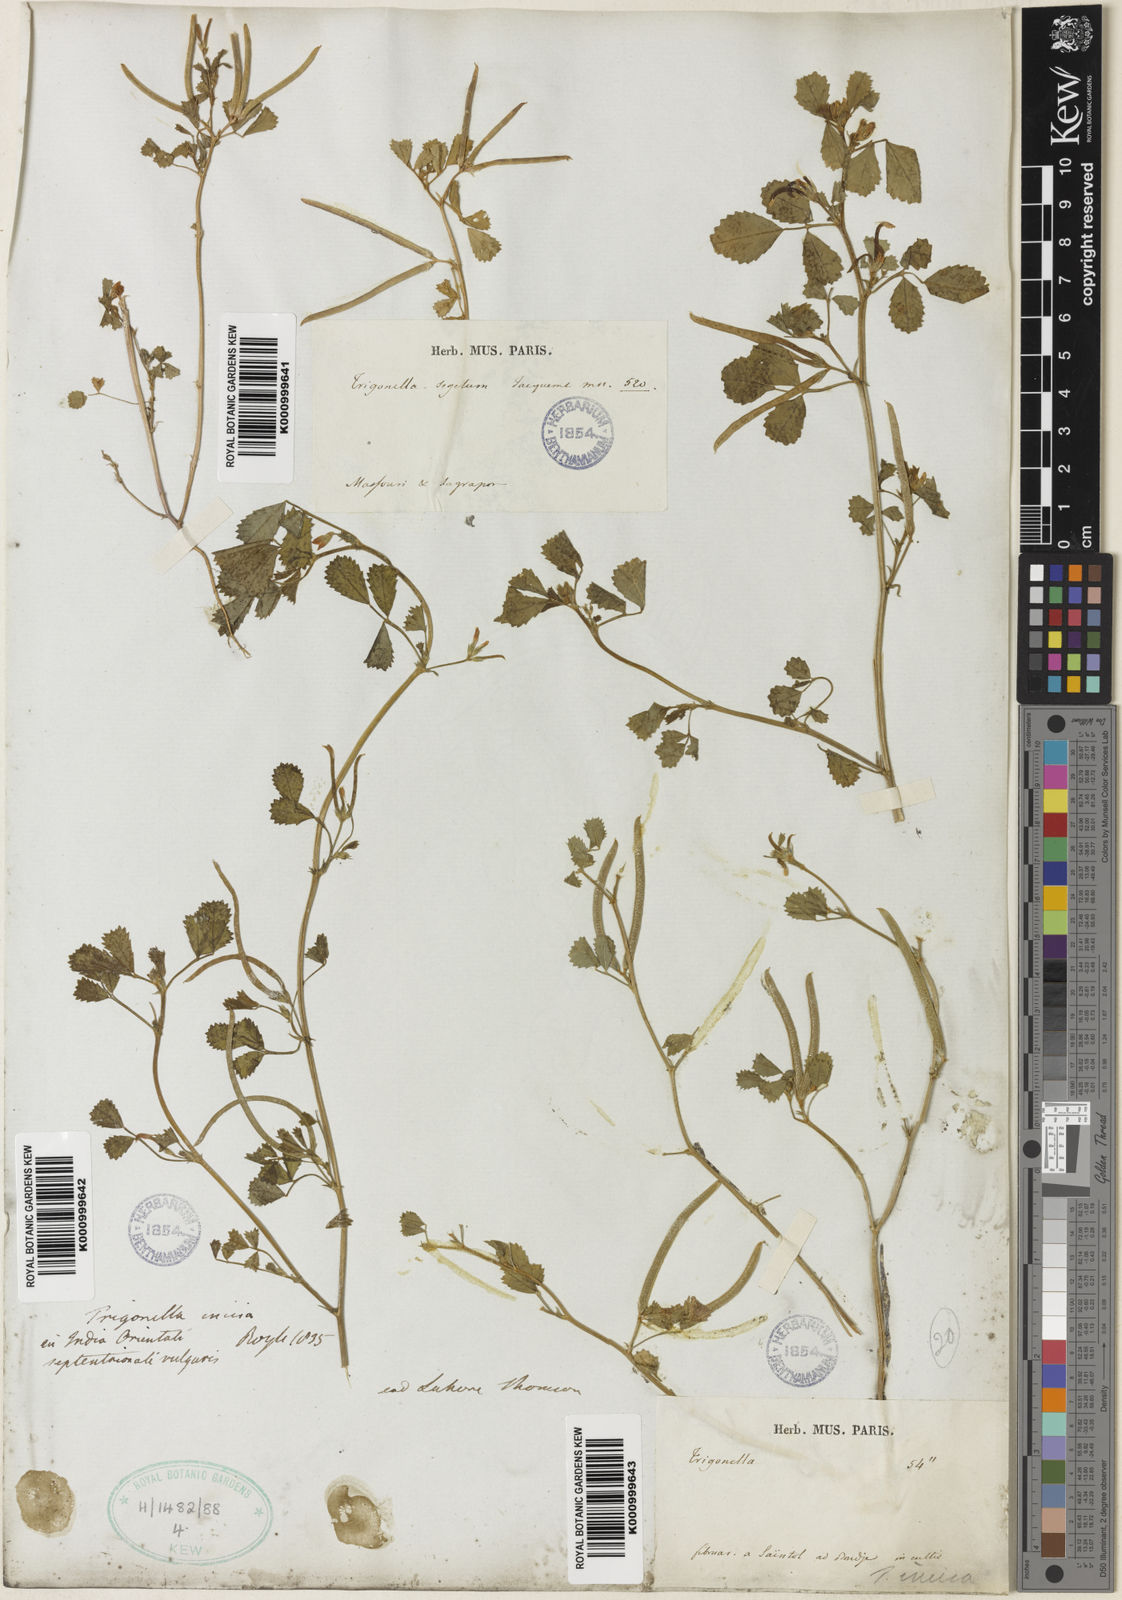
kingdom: Plantae
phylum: Tracheophyta
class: Magnoliopsida
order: Fabales
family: Fabaceae
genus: Medicago
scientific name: Medicago monantha
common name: Medick
